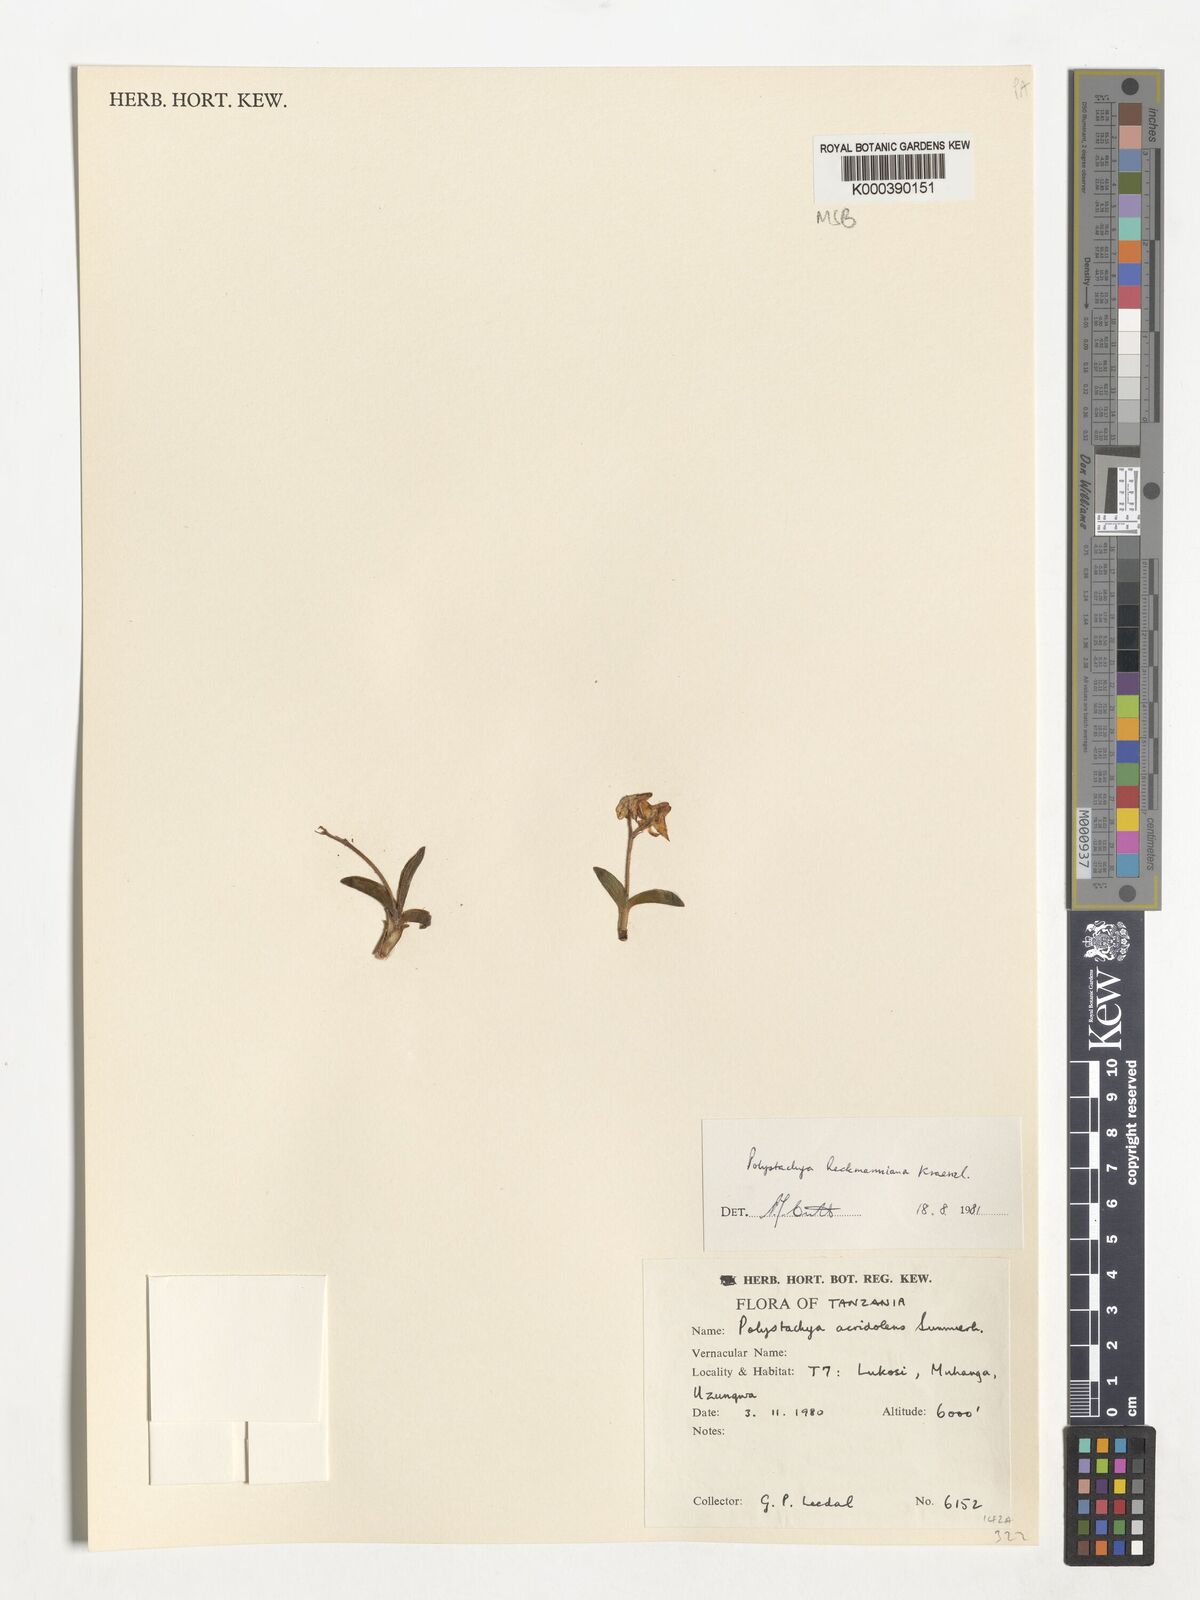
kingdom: Plantae
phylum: Tracheophyta
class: Liliopsida
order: Asparagales
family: Orchidaceae
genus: Polystachya
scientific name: Polystachya heckmanniana
